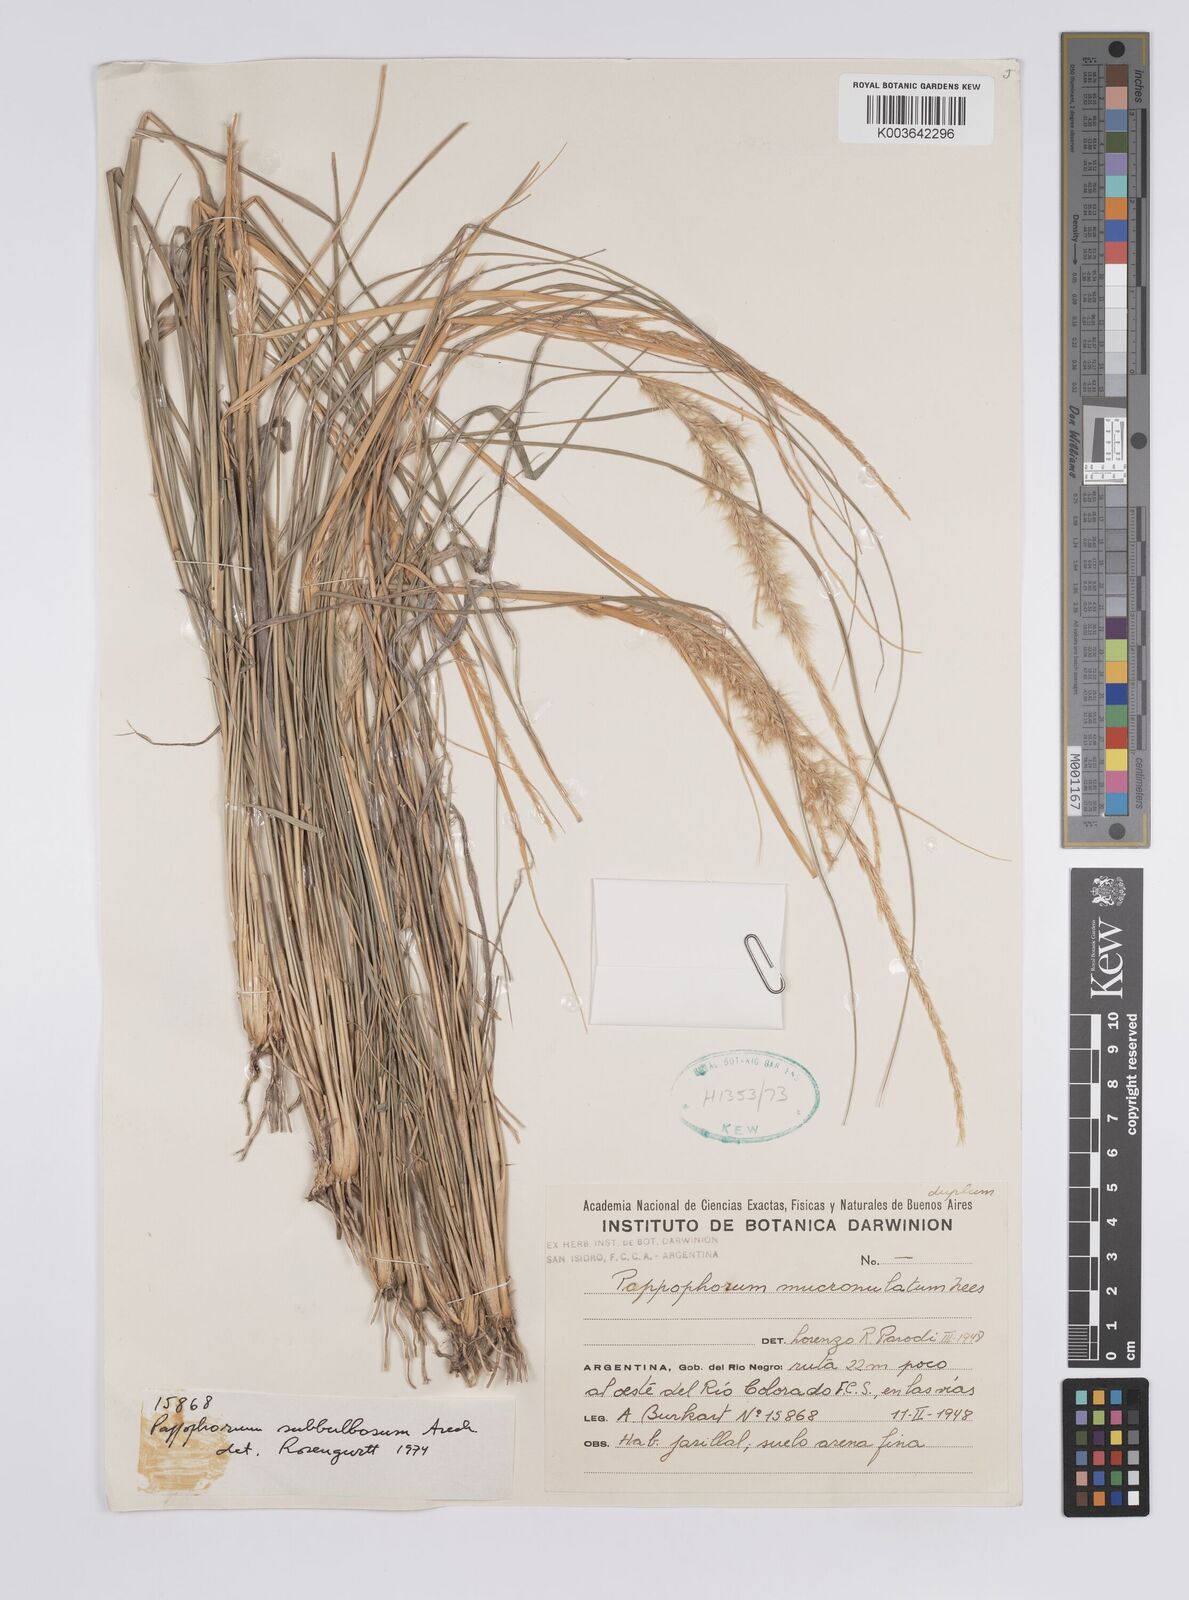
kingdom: Plantae
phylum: Tracheophyta
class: Liliopsida
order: Poales
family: Poaceae
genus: Pappophorum
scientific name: Pappophorum mucronulatum
